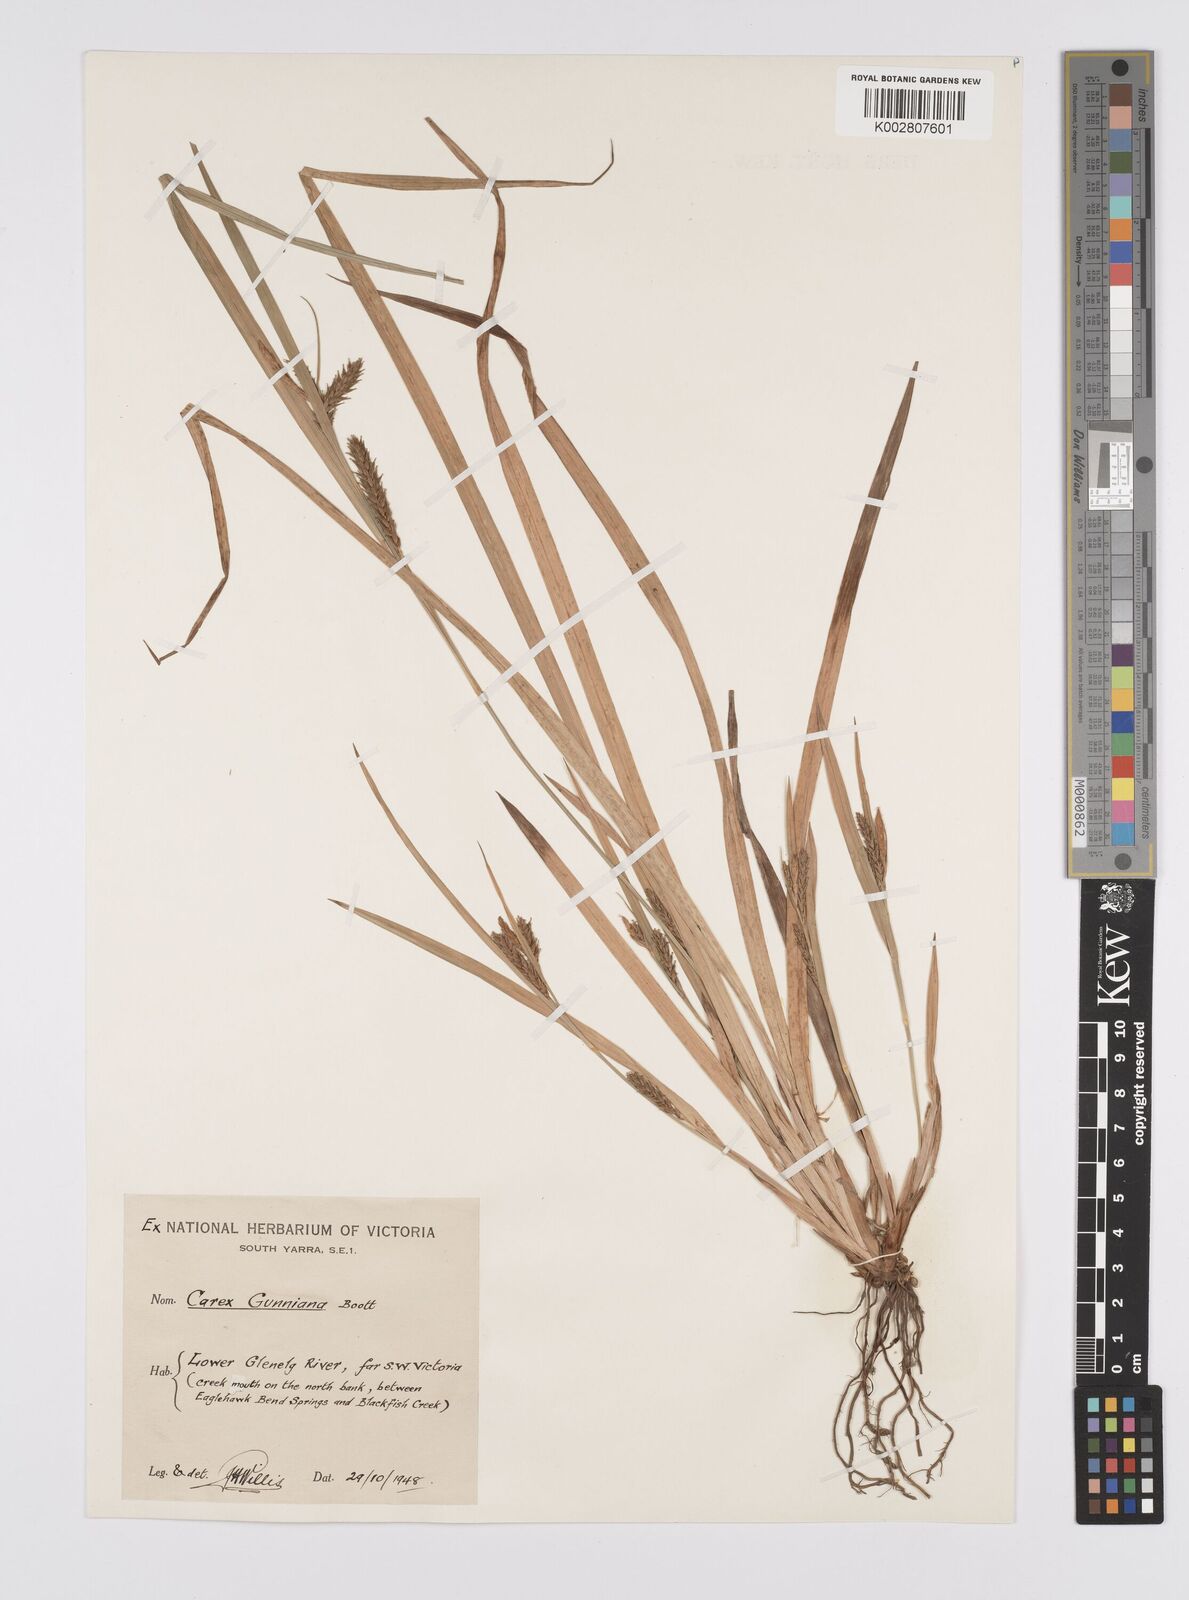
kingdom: Plantae
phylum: Tracheophyta
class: Liliopsida
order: Poales
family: Cyperaceae
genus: Carex
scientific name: Carex gunniana
